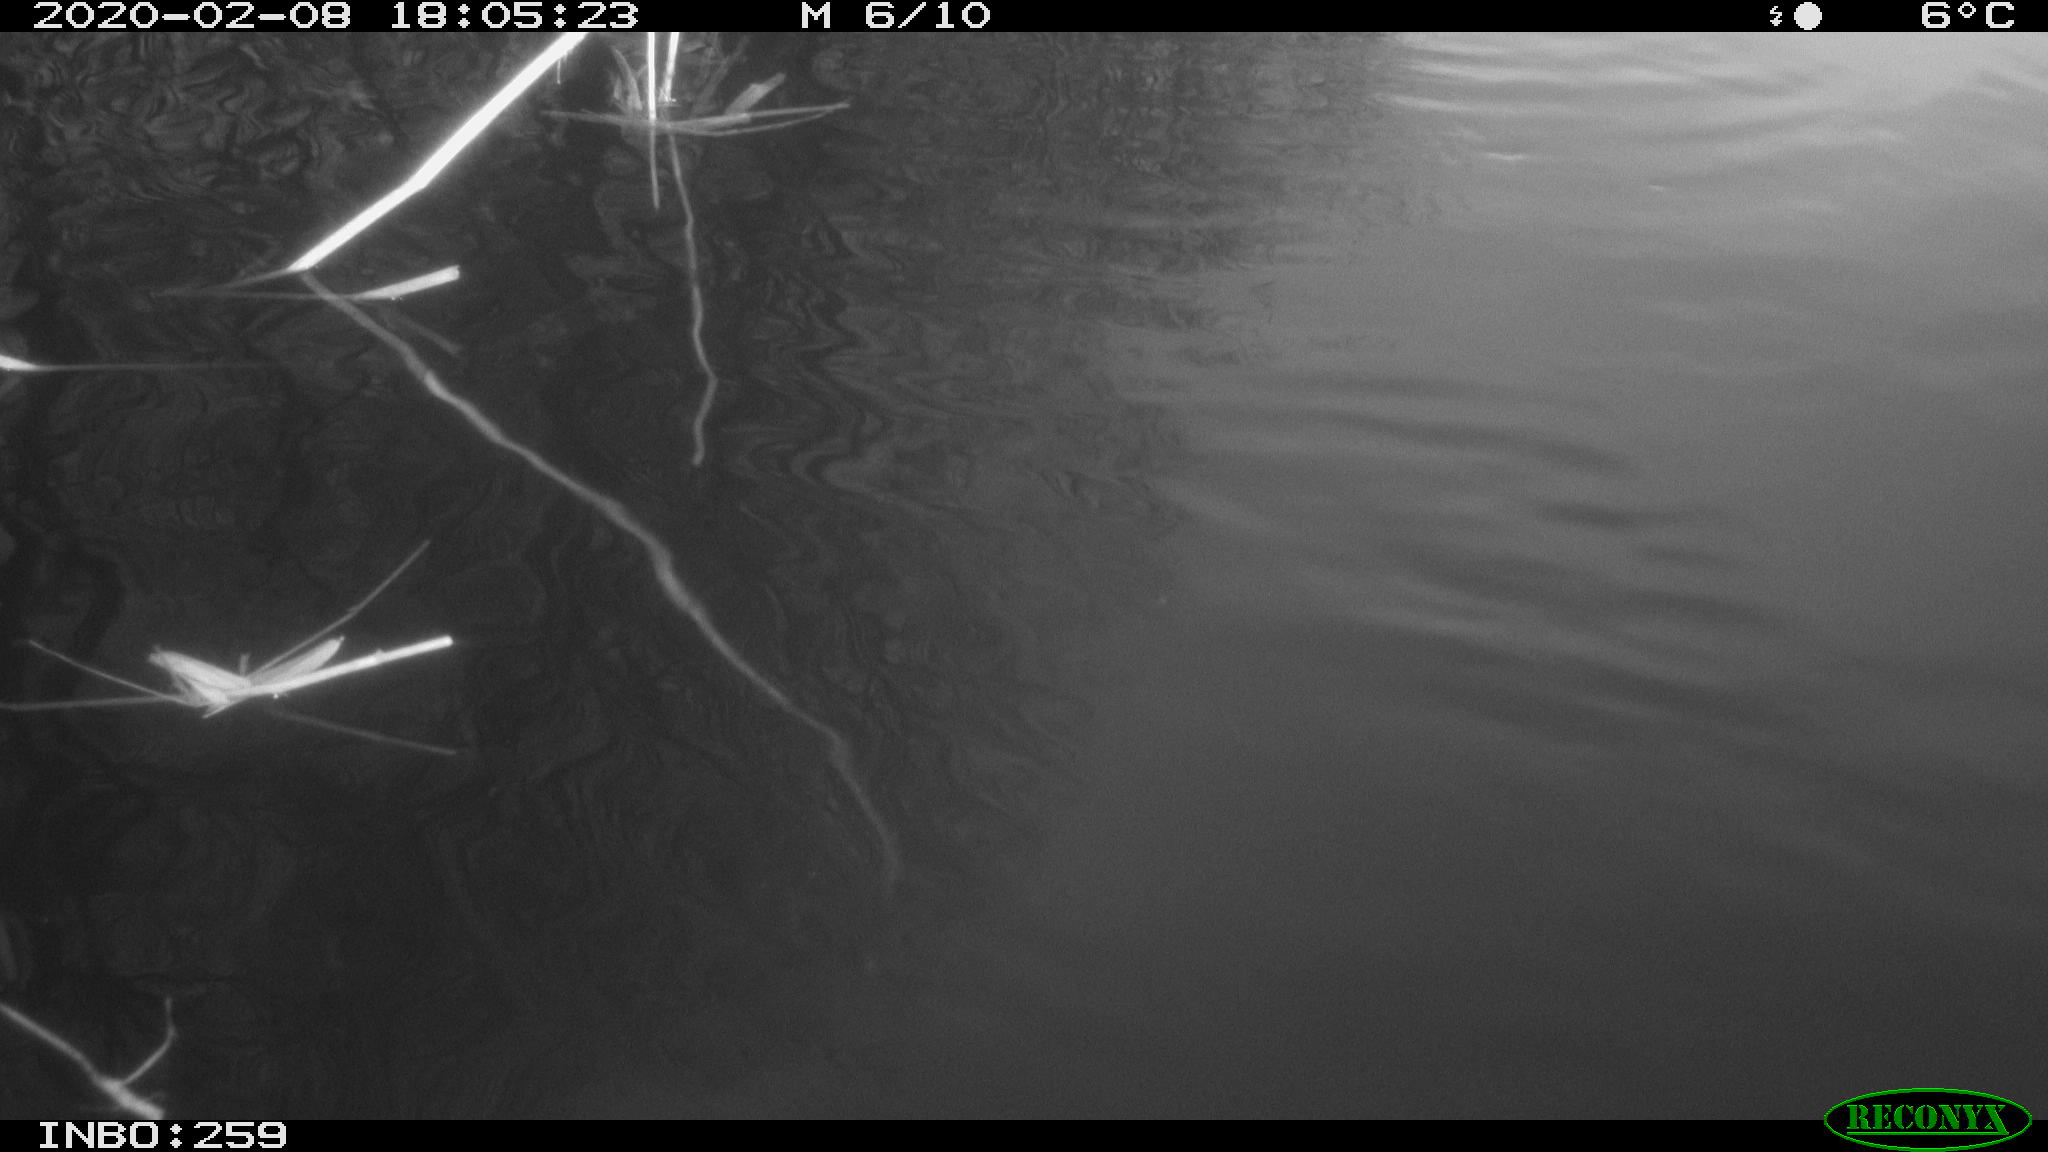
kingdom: Animalia
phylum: Chordata
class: Mammalia
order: Rodentia
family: Cricetidae
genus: Ondatra
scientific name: Ondatra zibethicus
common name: Muskrat
